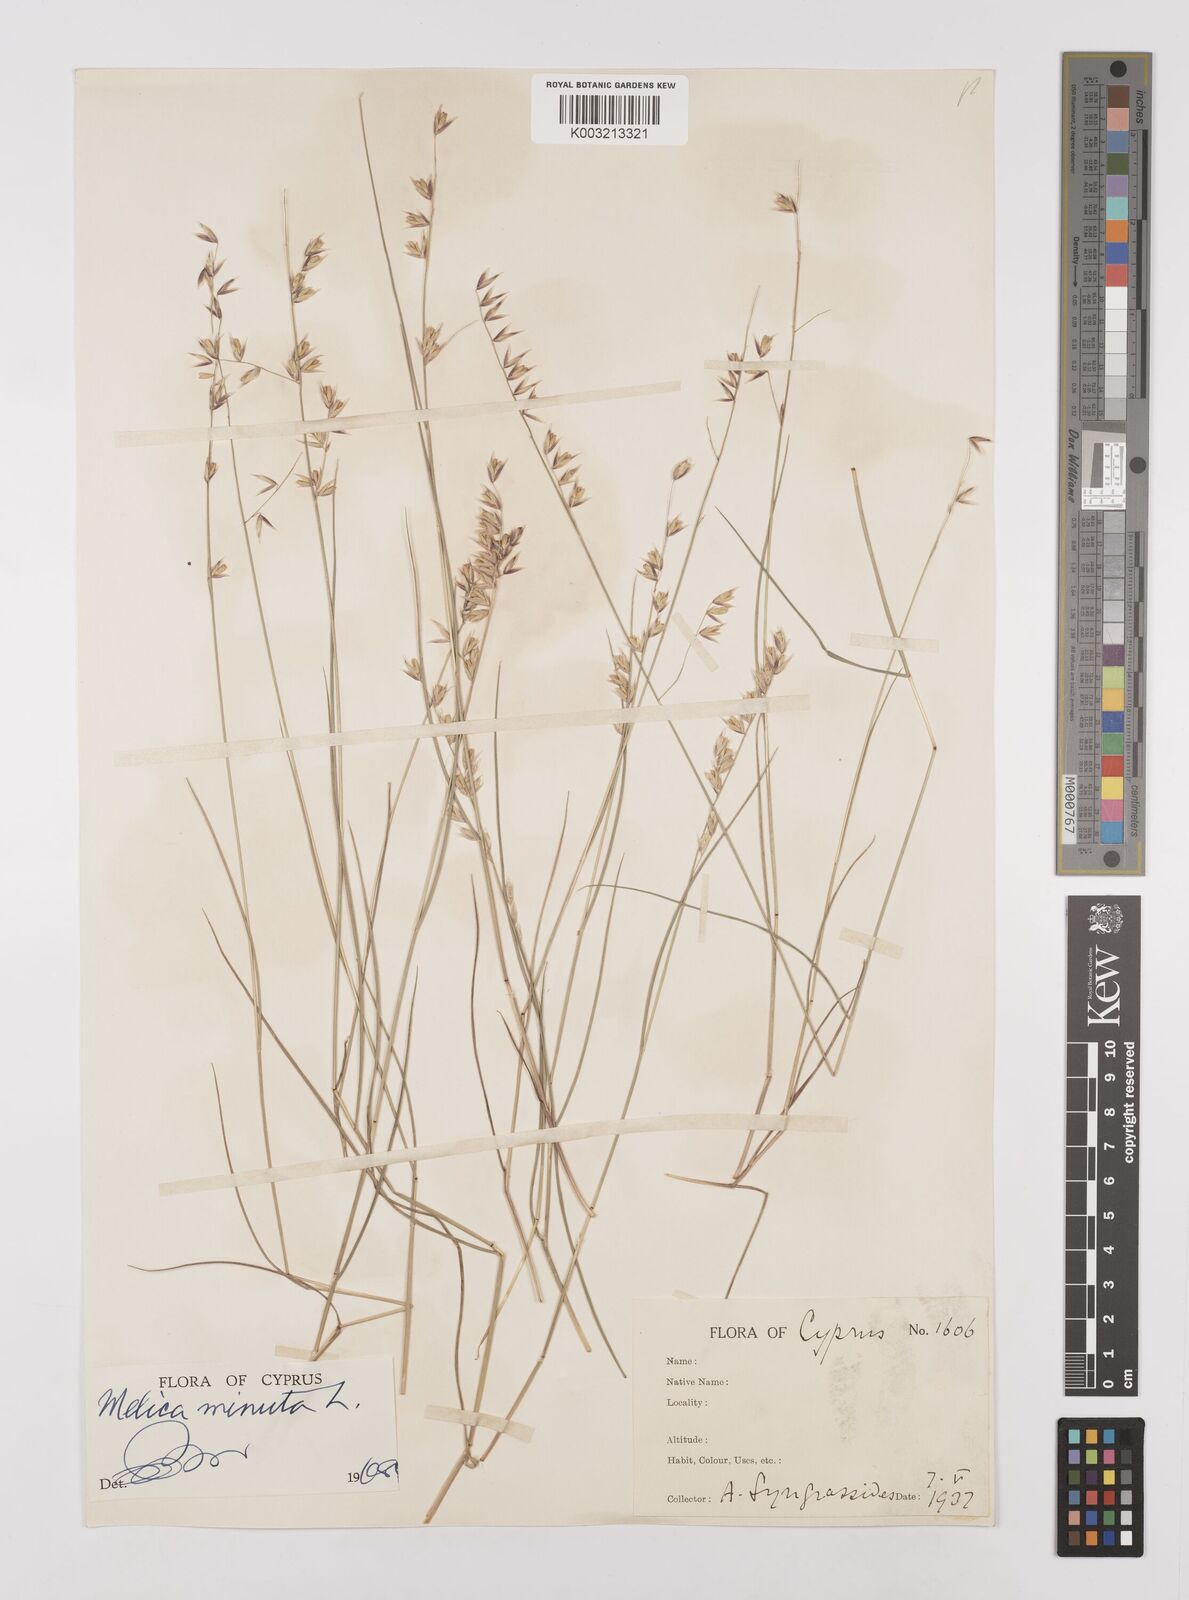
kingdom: Plantae
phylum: Tracheophyta
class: Liliopsida
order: Poales
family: Poaceae
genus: Melica
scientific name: Melica minuta
